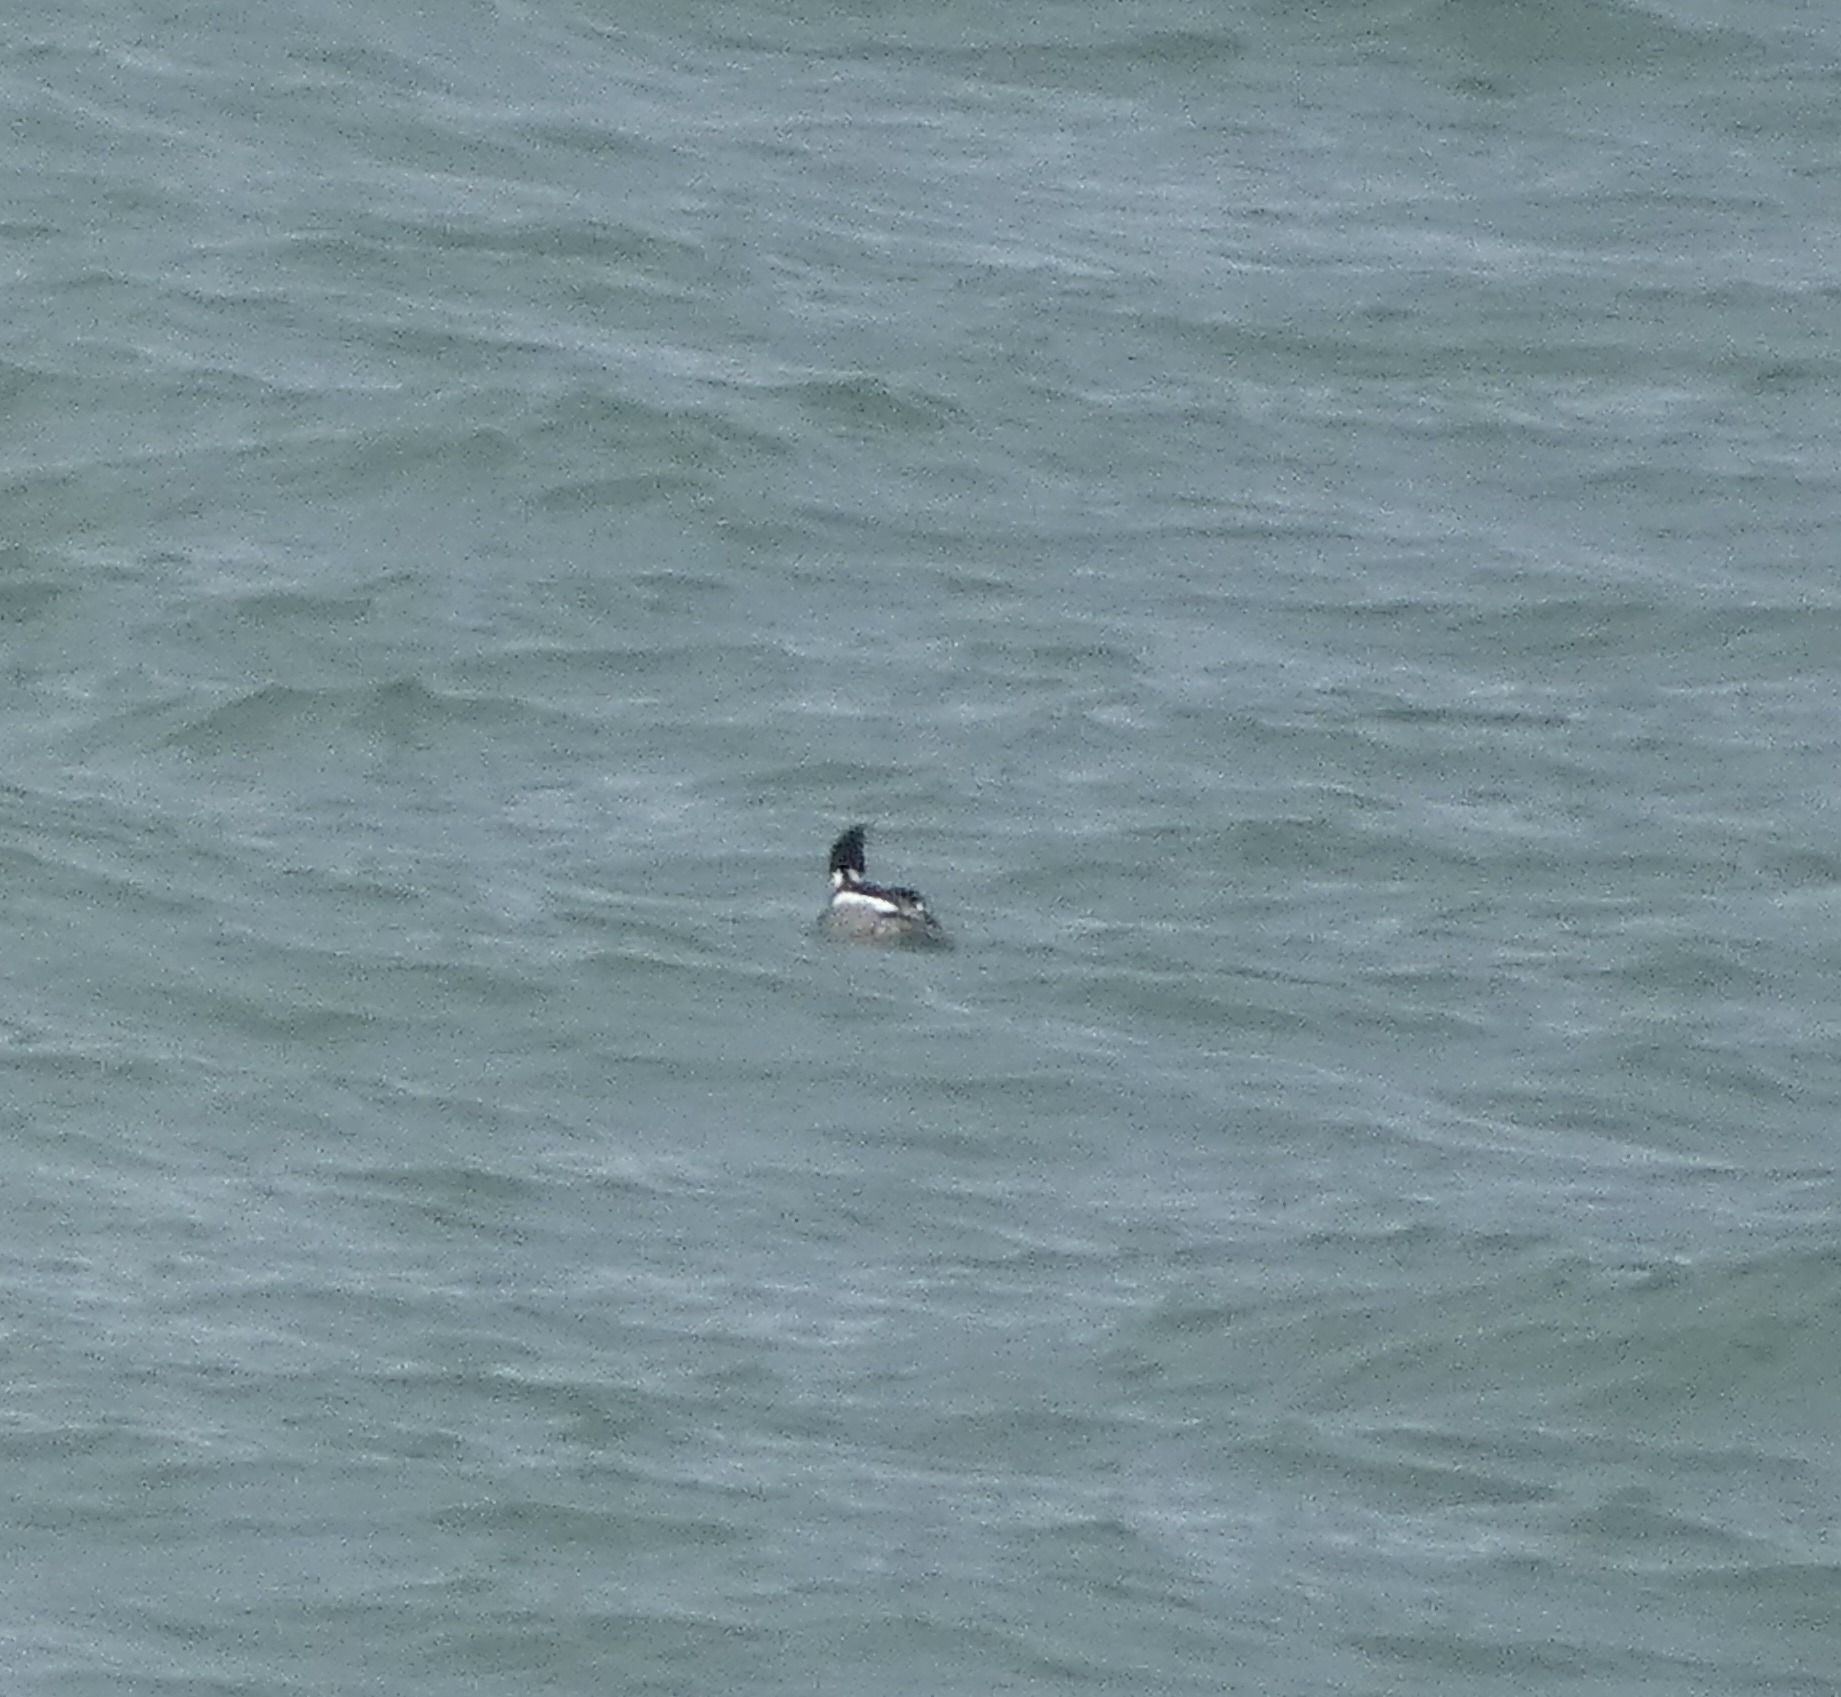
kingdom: Animalia
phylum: Chordata
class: Aves
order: Anseriformes
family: Anatidae
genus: Mergus
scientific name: Mergus serrator
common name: Toppet skallesluger
